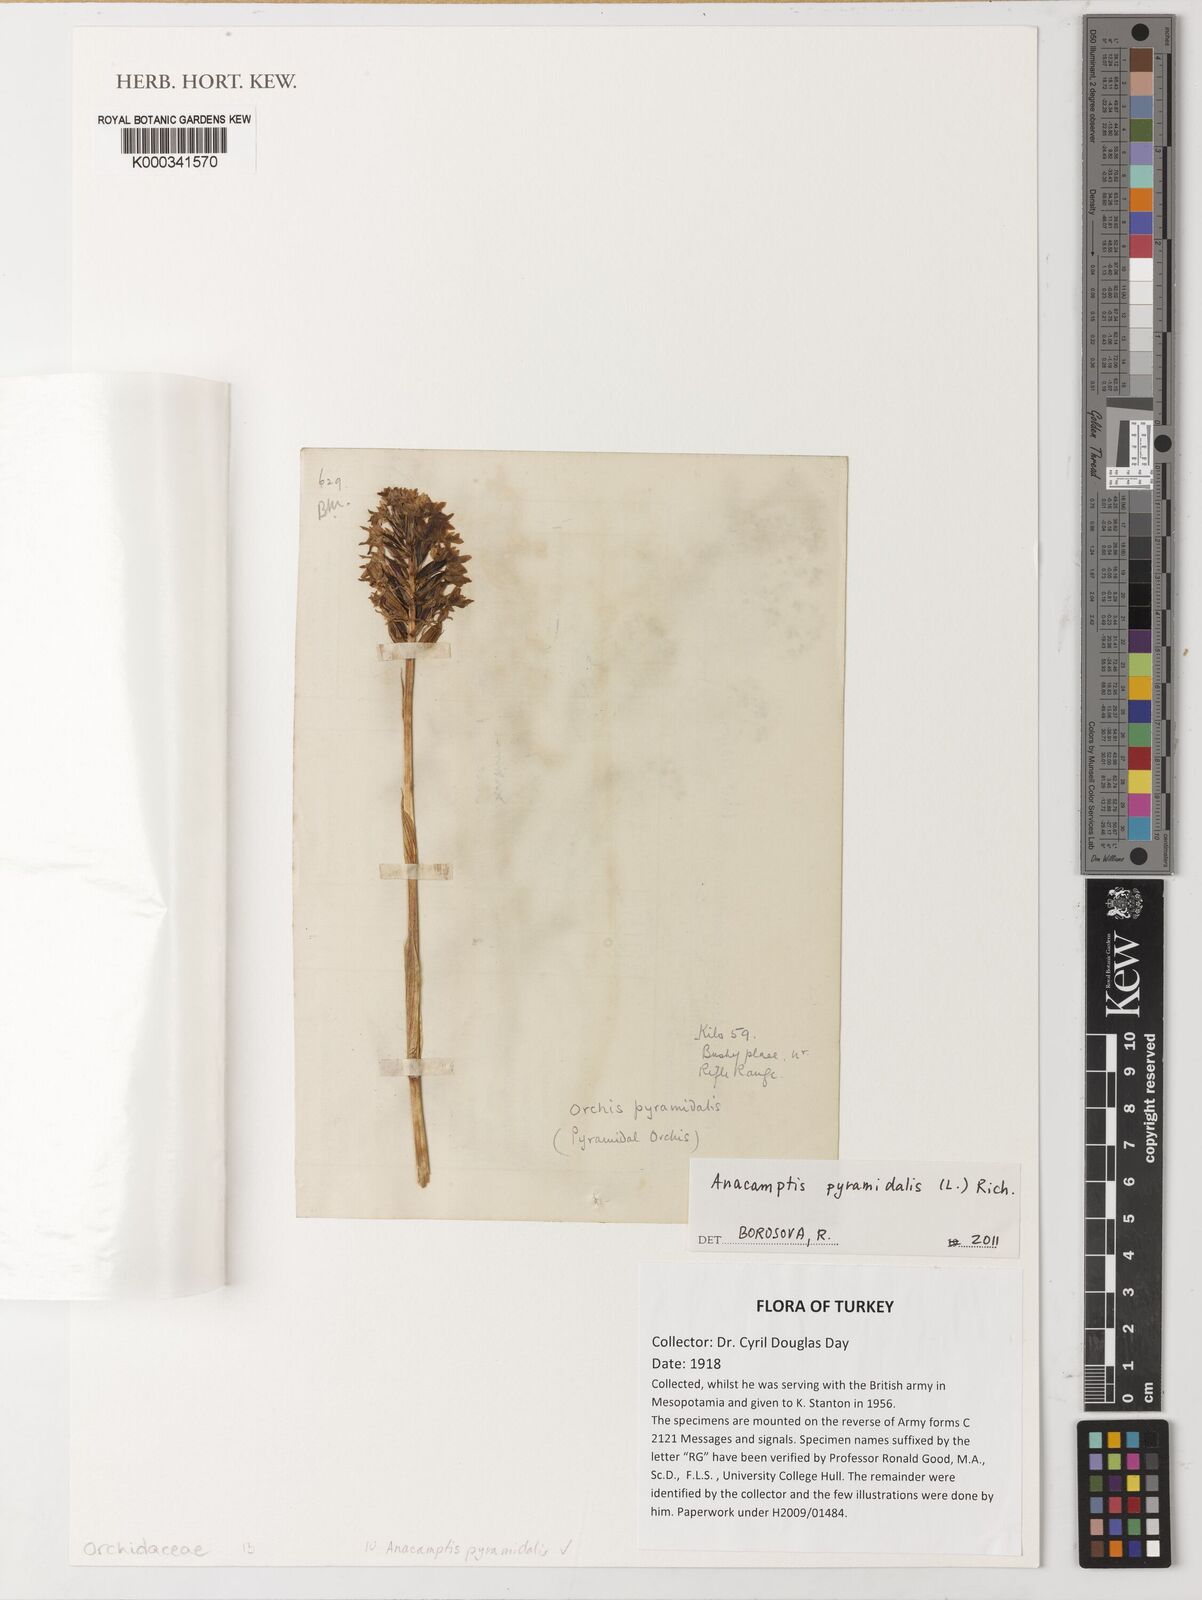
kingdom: Plantae
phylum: Tracheophyta
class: Liliopsida
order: Asparagales
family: Orchidaceae
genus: Anacamptis
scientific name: Anacamptis pyramidalis
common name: Pyramidal orchid
